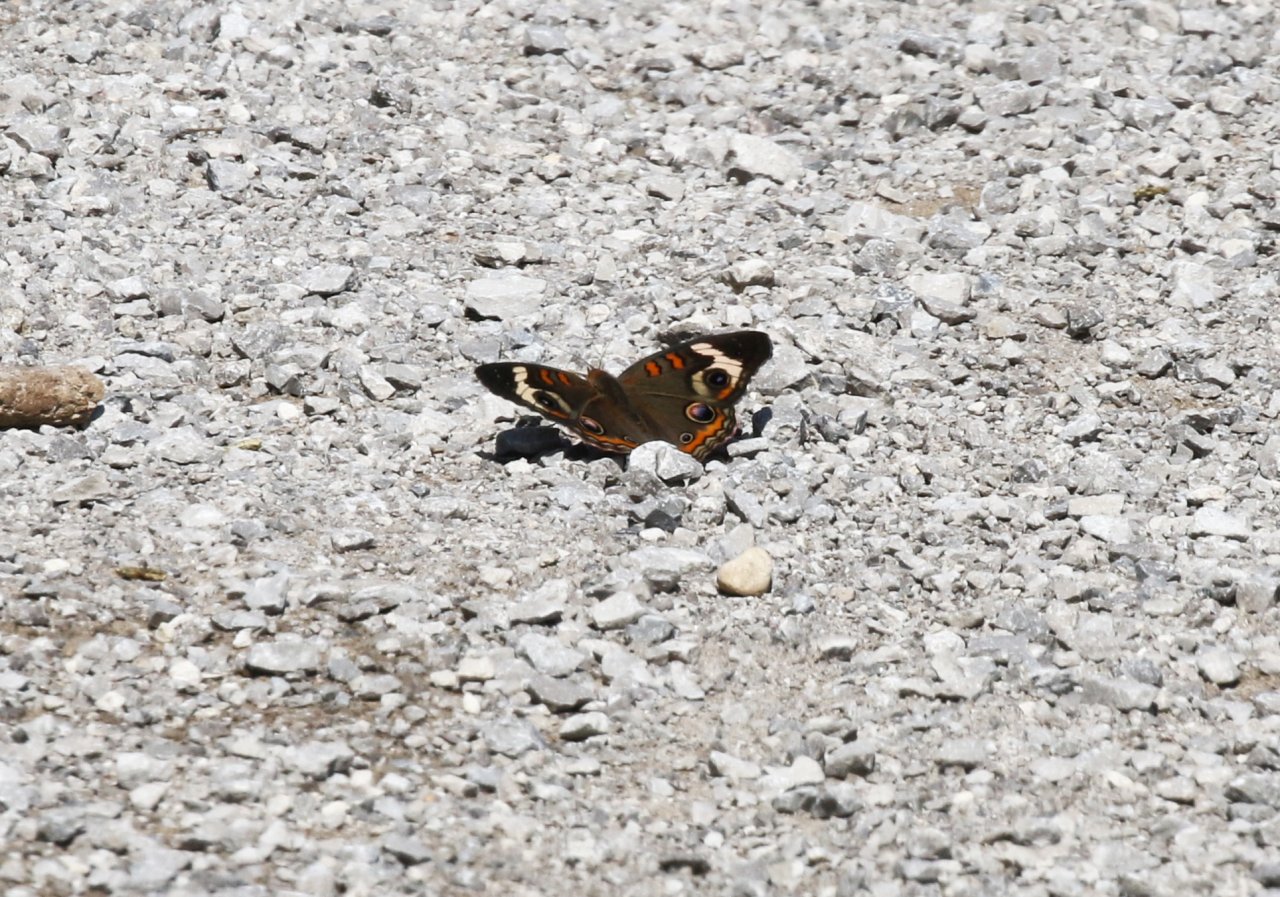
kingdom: Animalia
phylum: Arthropoda
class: Insecta
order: Lepidoptera
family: Nymphalidae
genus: Junonia
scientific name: Junonia coenia
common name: Common Buckeye
